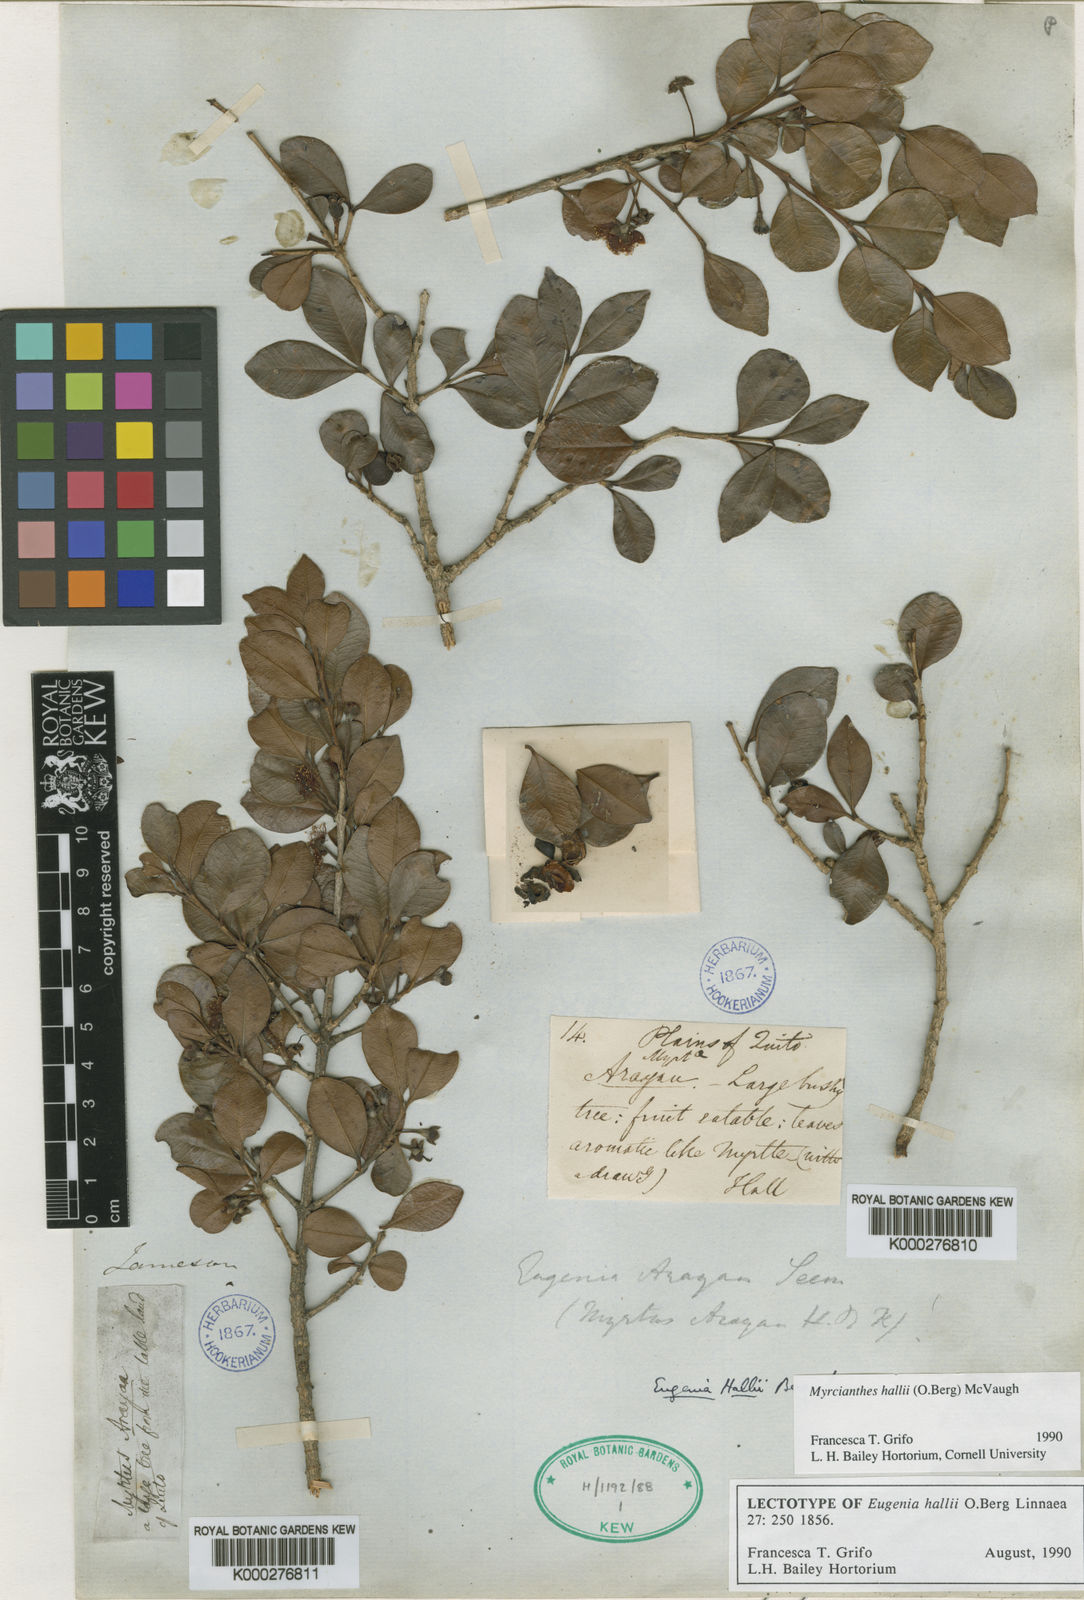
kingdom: Plantae
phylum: Tracheophyta
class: Magnoliopsida
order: Myrtales
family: Myrtaceae
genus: Myrcianthes
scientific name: Myrcianthes hallii
